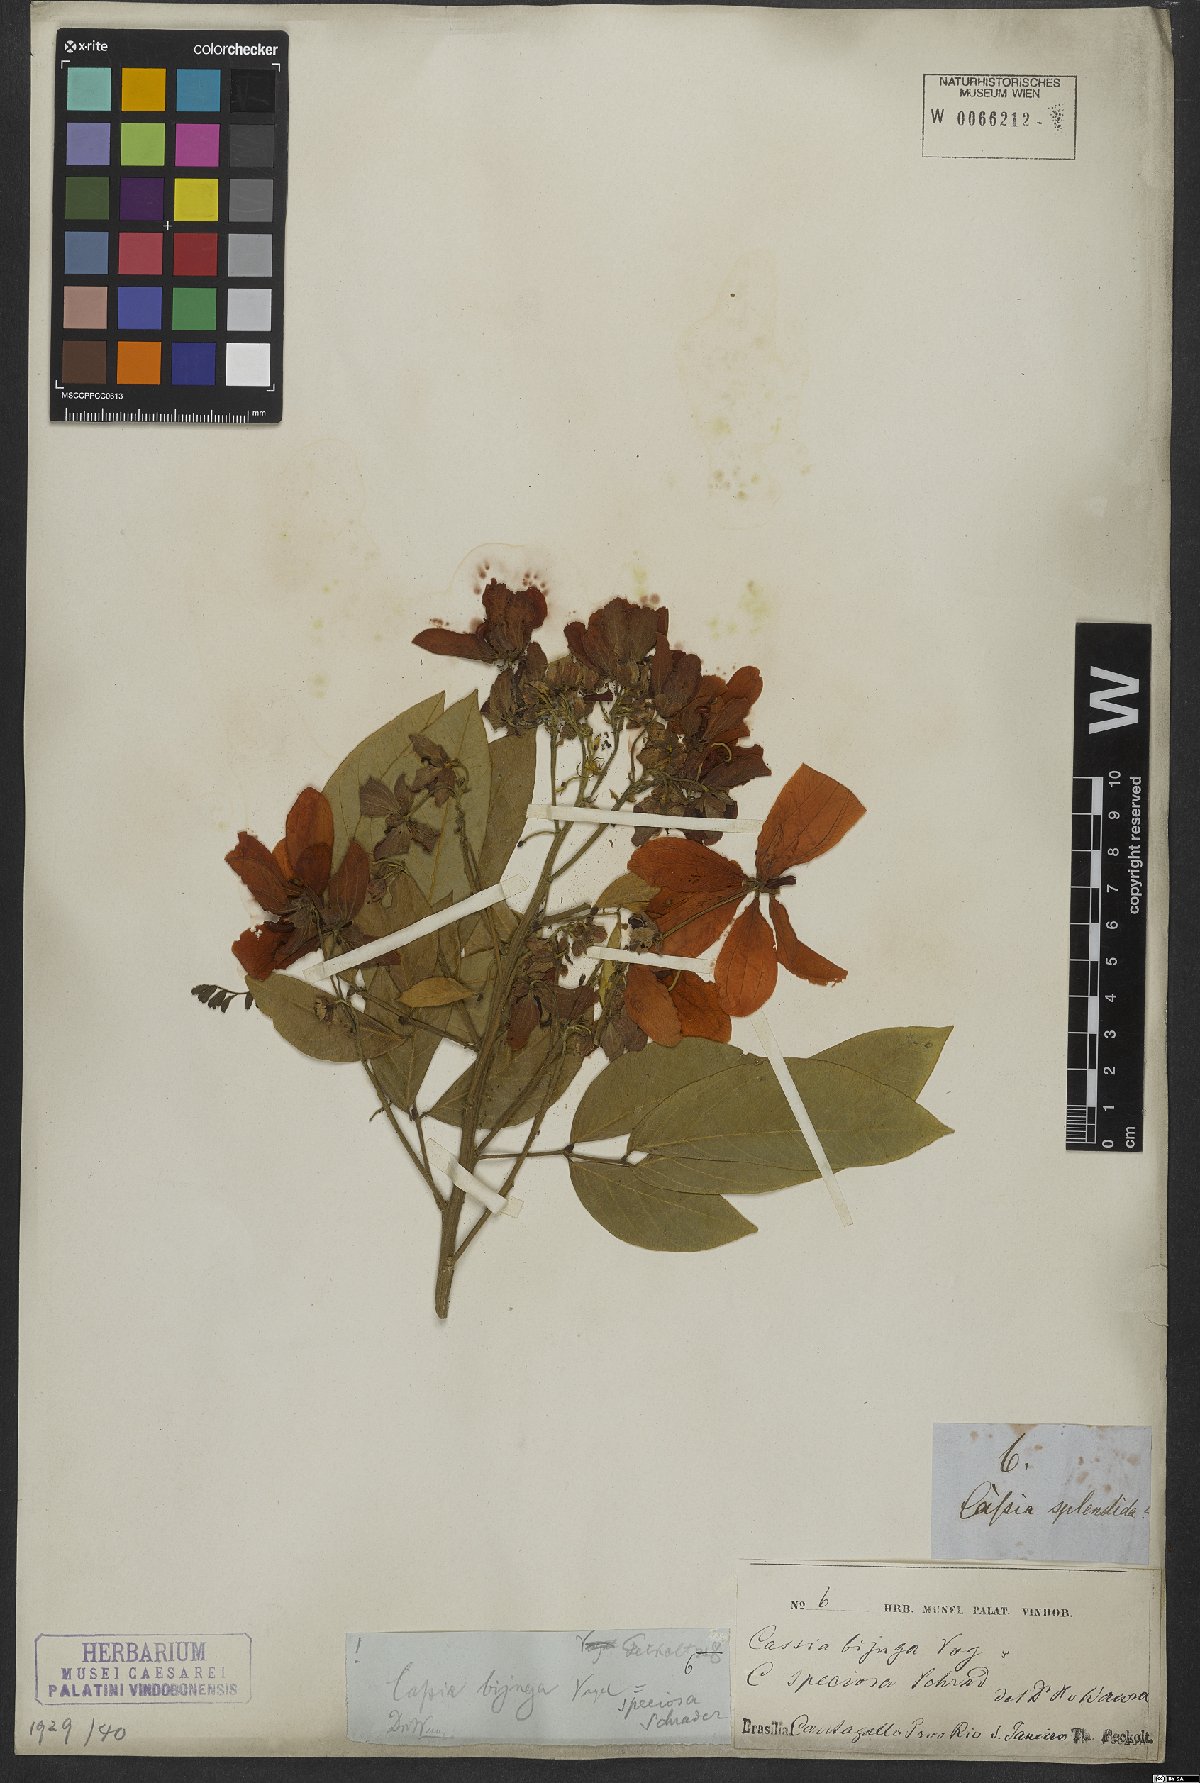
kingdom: Plantae
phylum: Tracheophyta
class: Magnoliopsida
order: Fabales
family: Fabaceae
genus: Senna
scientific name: Senna macranthera
